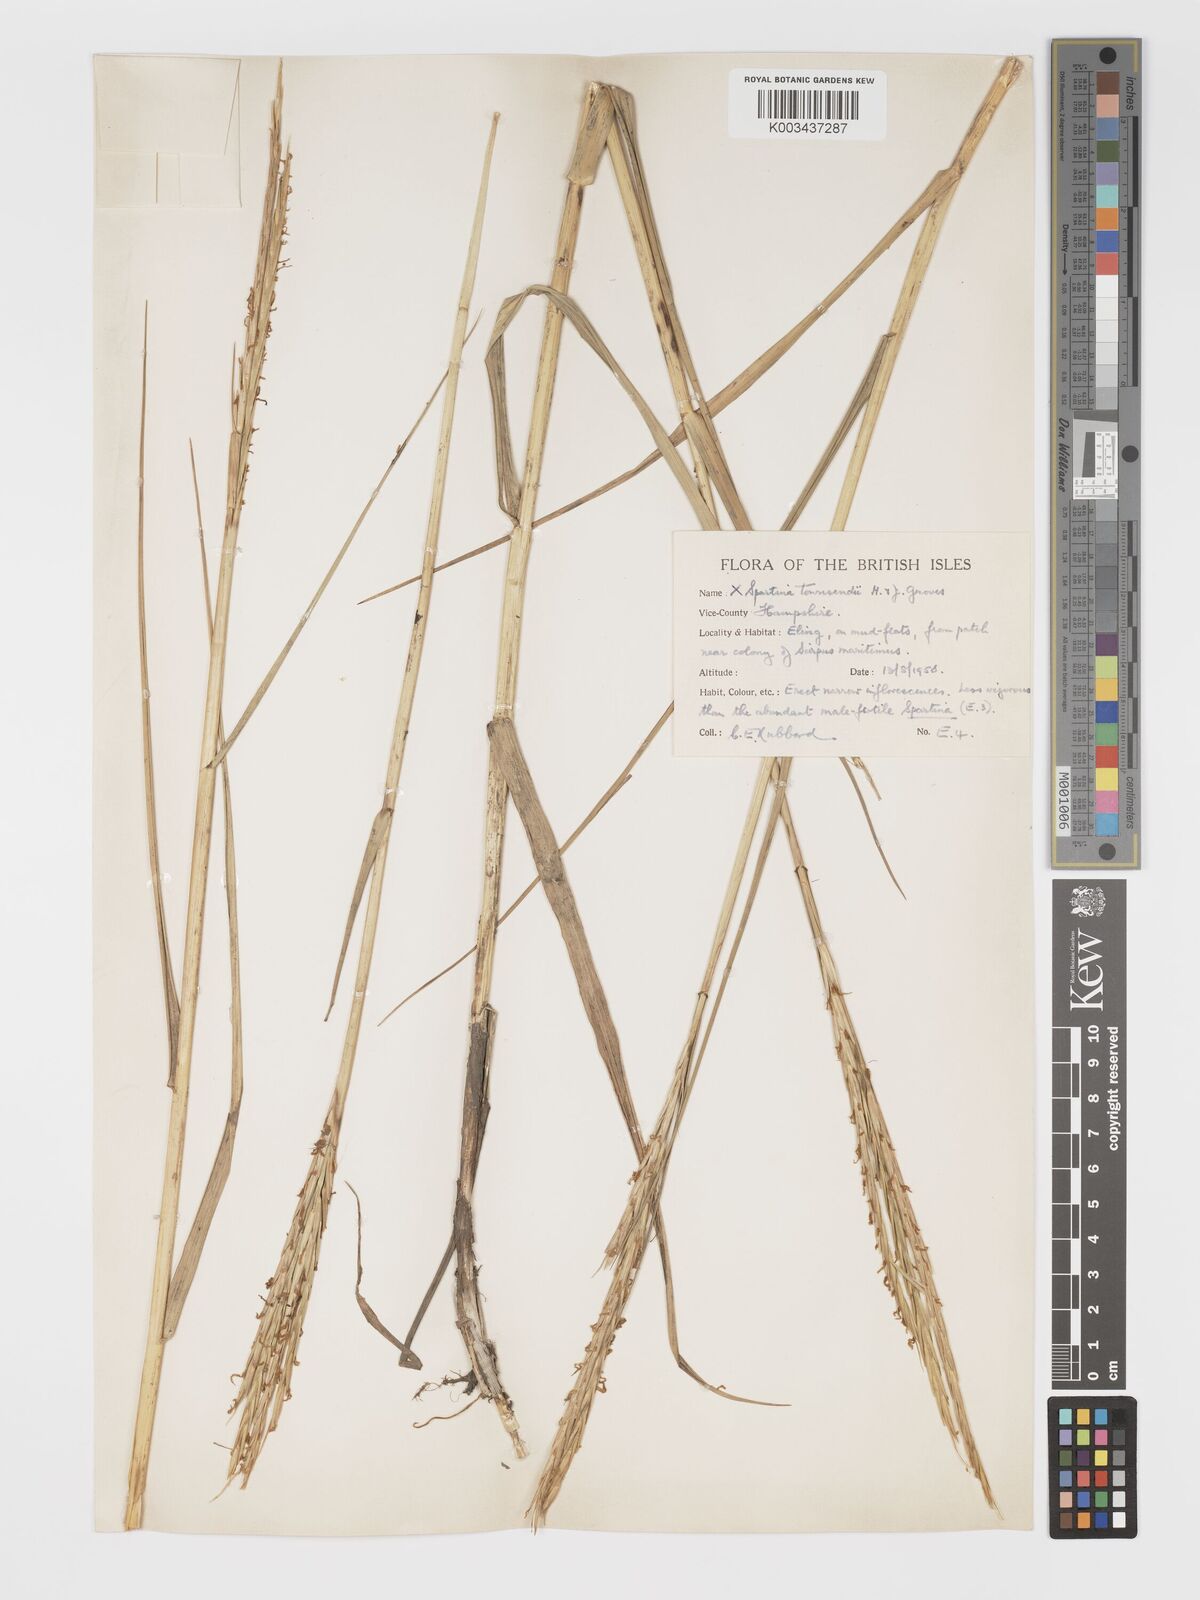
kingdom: Plantae
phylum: Tracheophyta
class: Liliopsida
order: Poales
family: Poaceae
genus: Sporobolus
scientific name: Sporobolus townsendii
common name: Townsend's cordgrass
